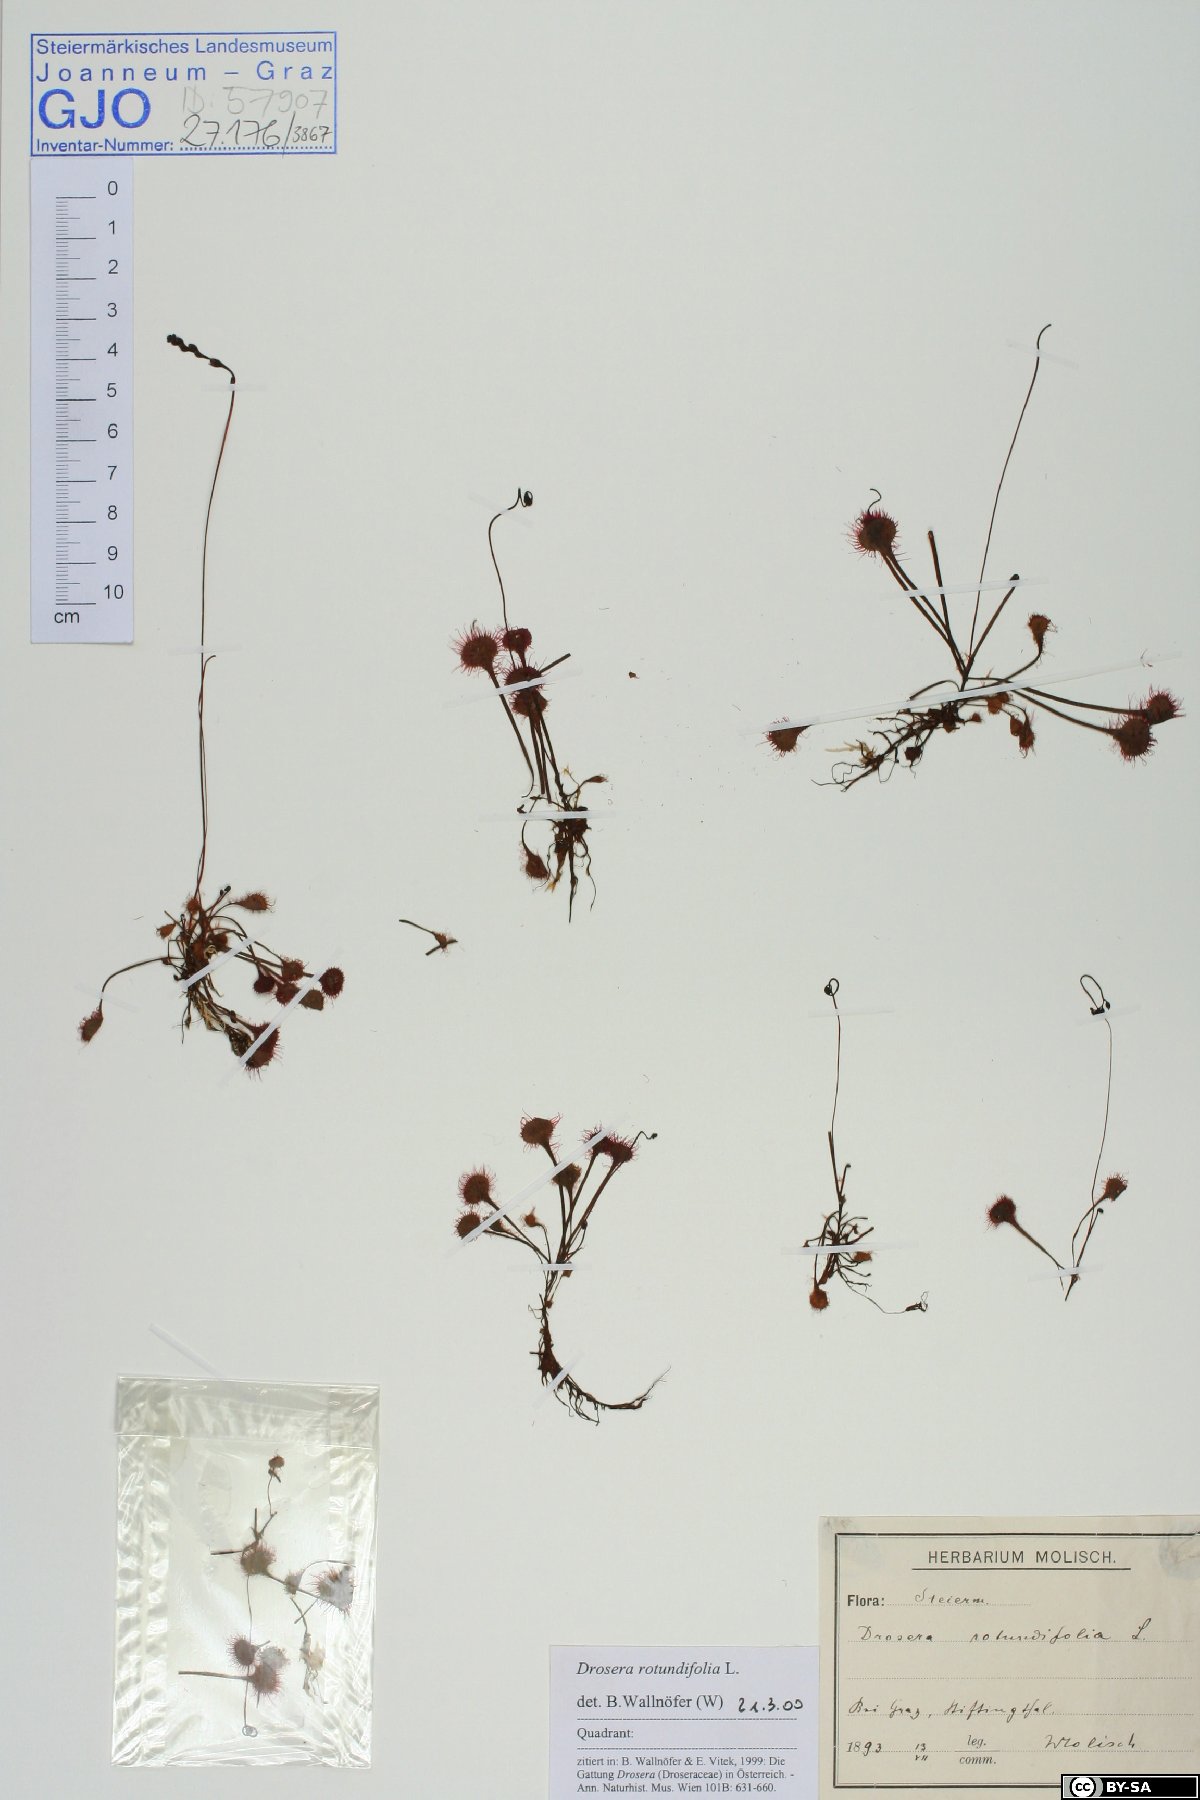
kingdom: Plantae
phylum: Tracheophyta
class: Magnoliopsida
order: Caryophyllales
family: Droseraceae
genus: Drosera
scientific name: Drosera rotundifolia
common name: Round-leaved sundew
